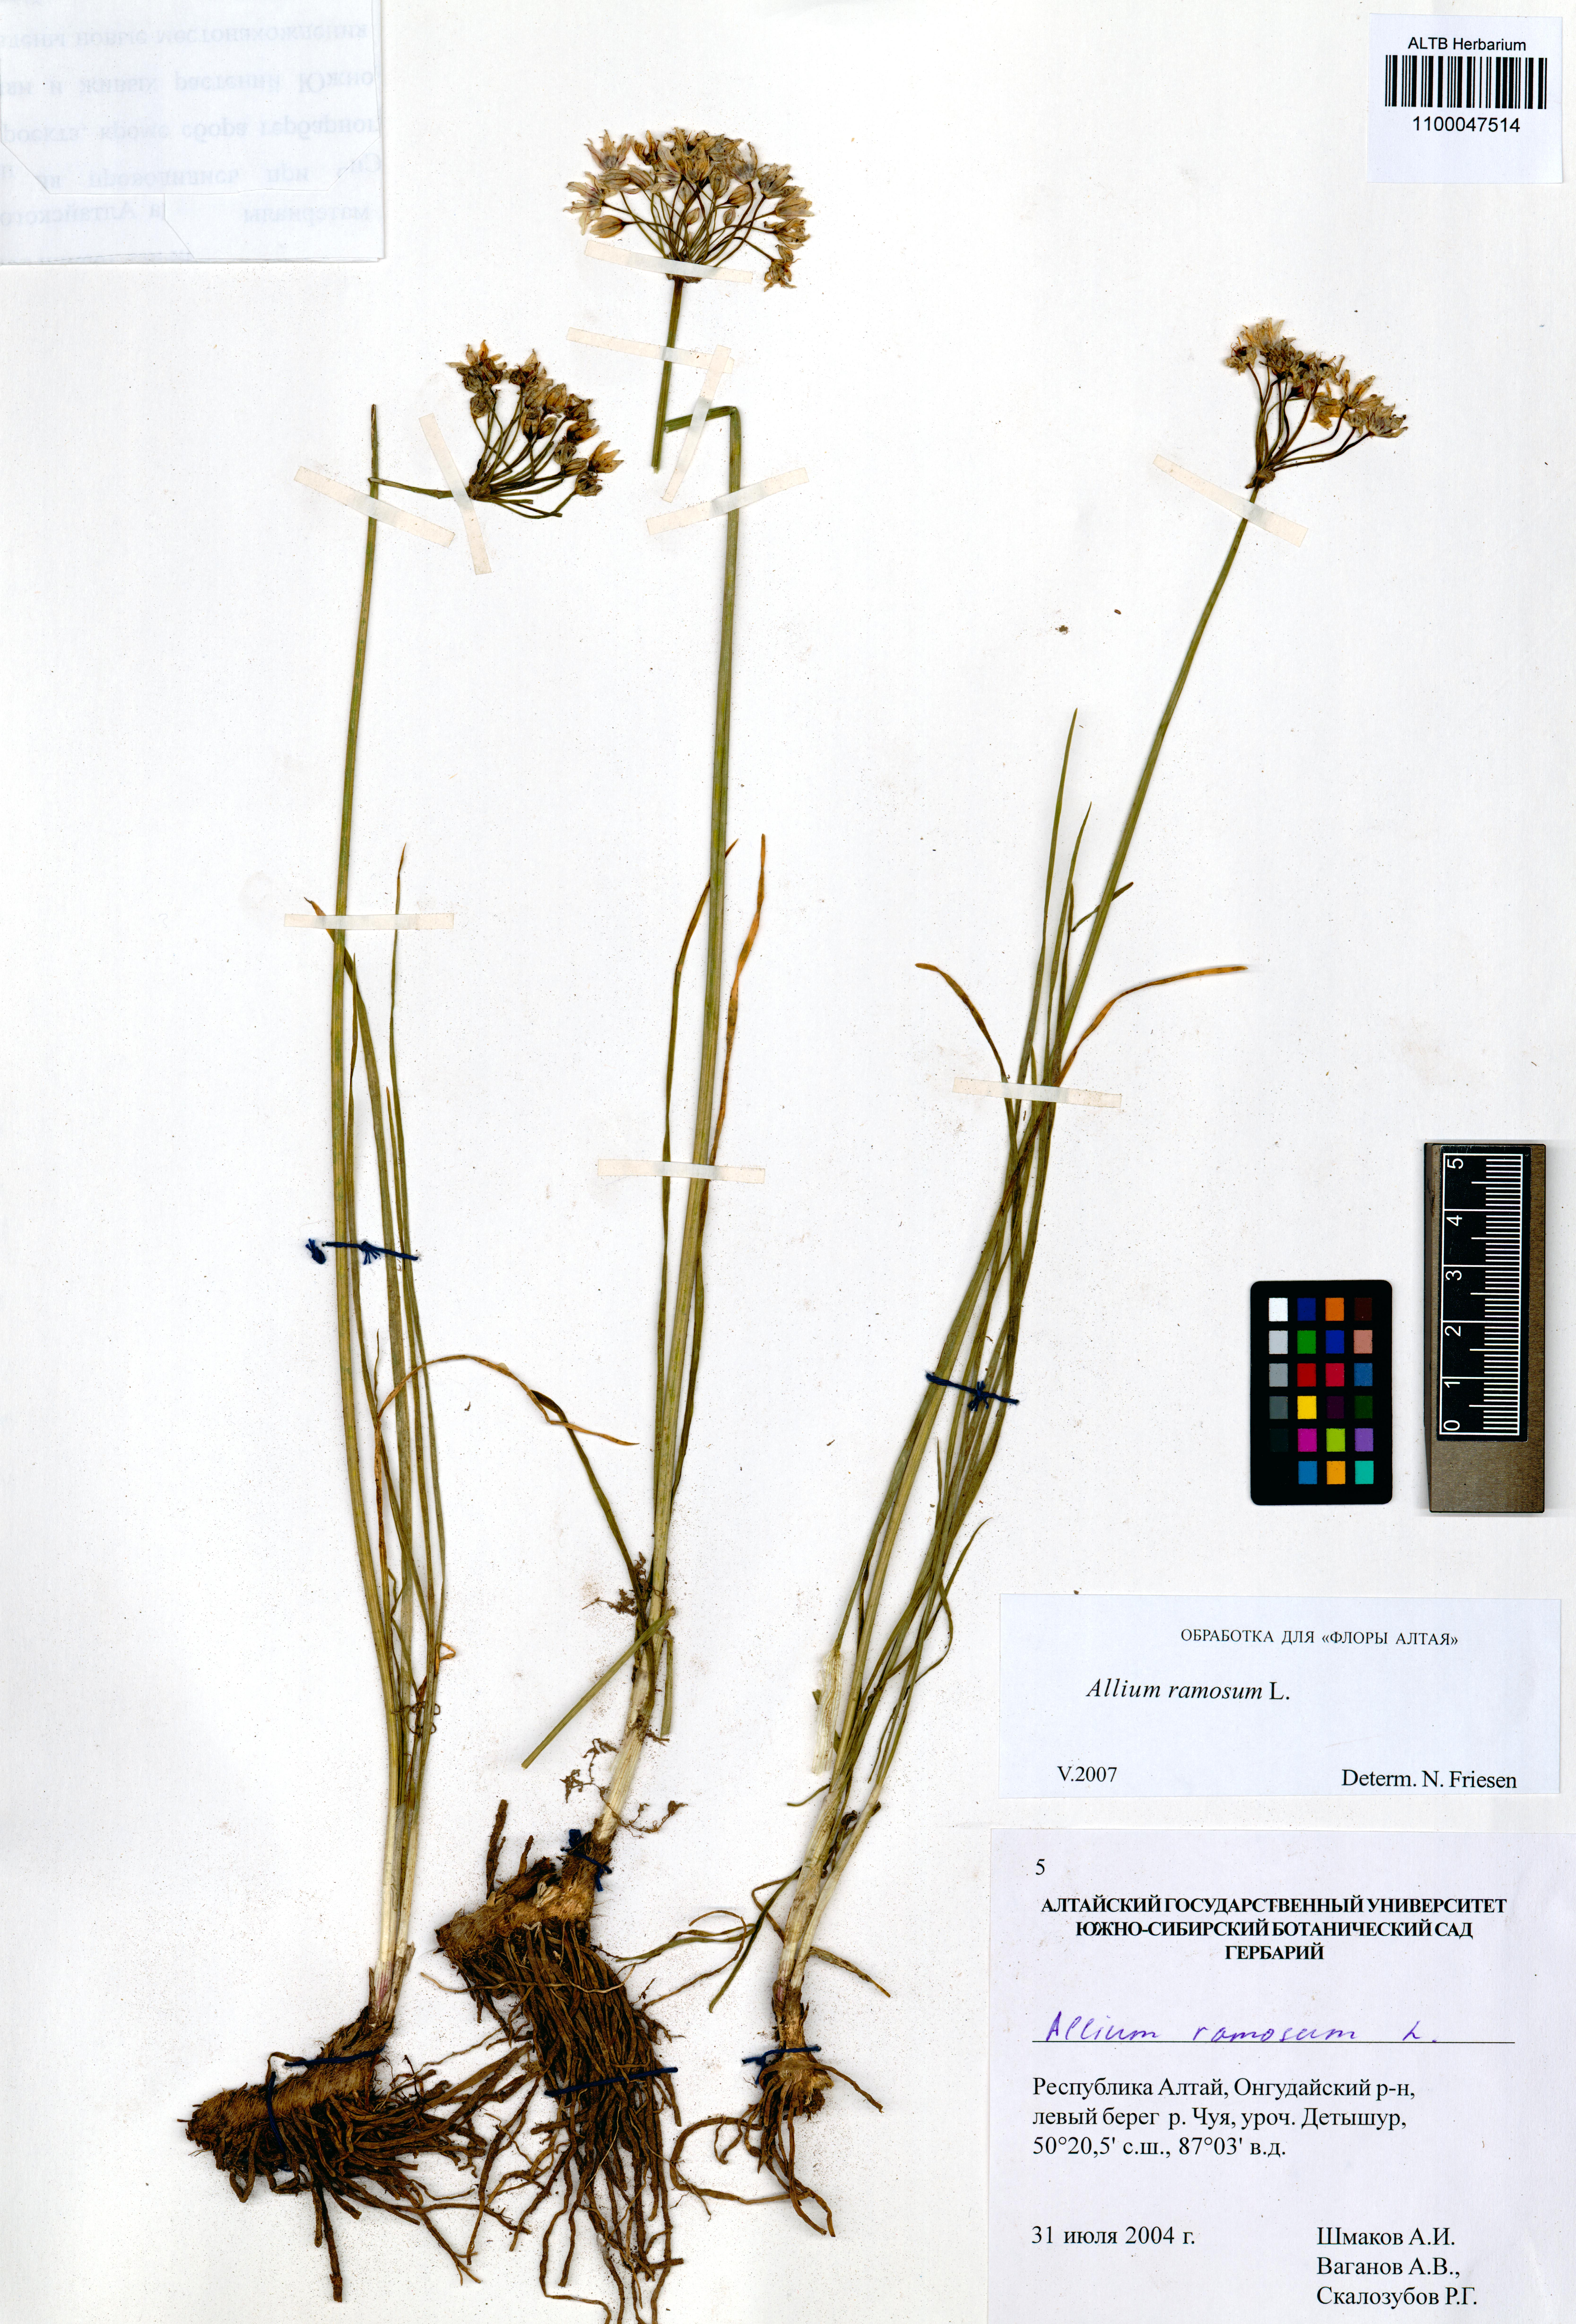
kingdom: Plantae
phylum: Tracheophyta
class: Liliopsida
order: Asparagales
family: Amaryllidaceae
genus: Allium
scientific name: Allium ramosum
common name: Fragrant garlic
